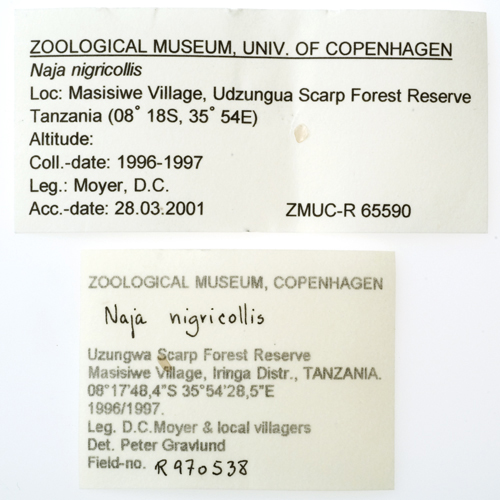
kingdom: Animalia
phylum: Chordata
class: Squamata
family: Elapidae
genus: Naja
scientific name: Naja nigricollis
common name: Black-necked spitting cobra
